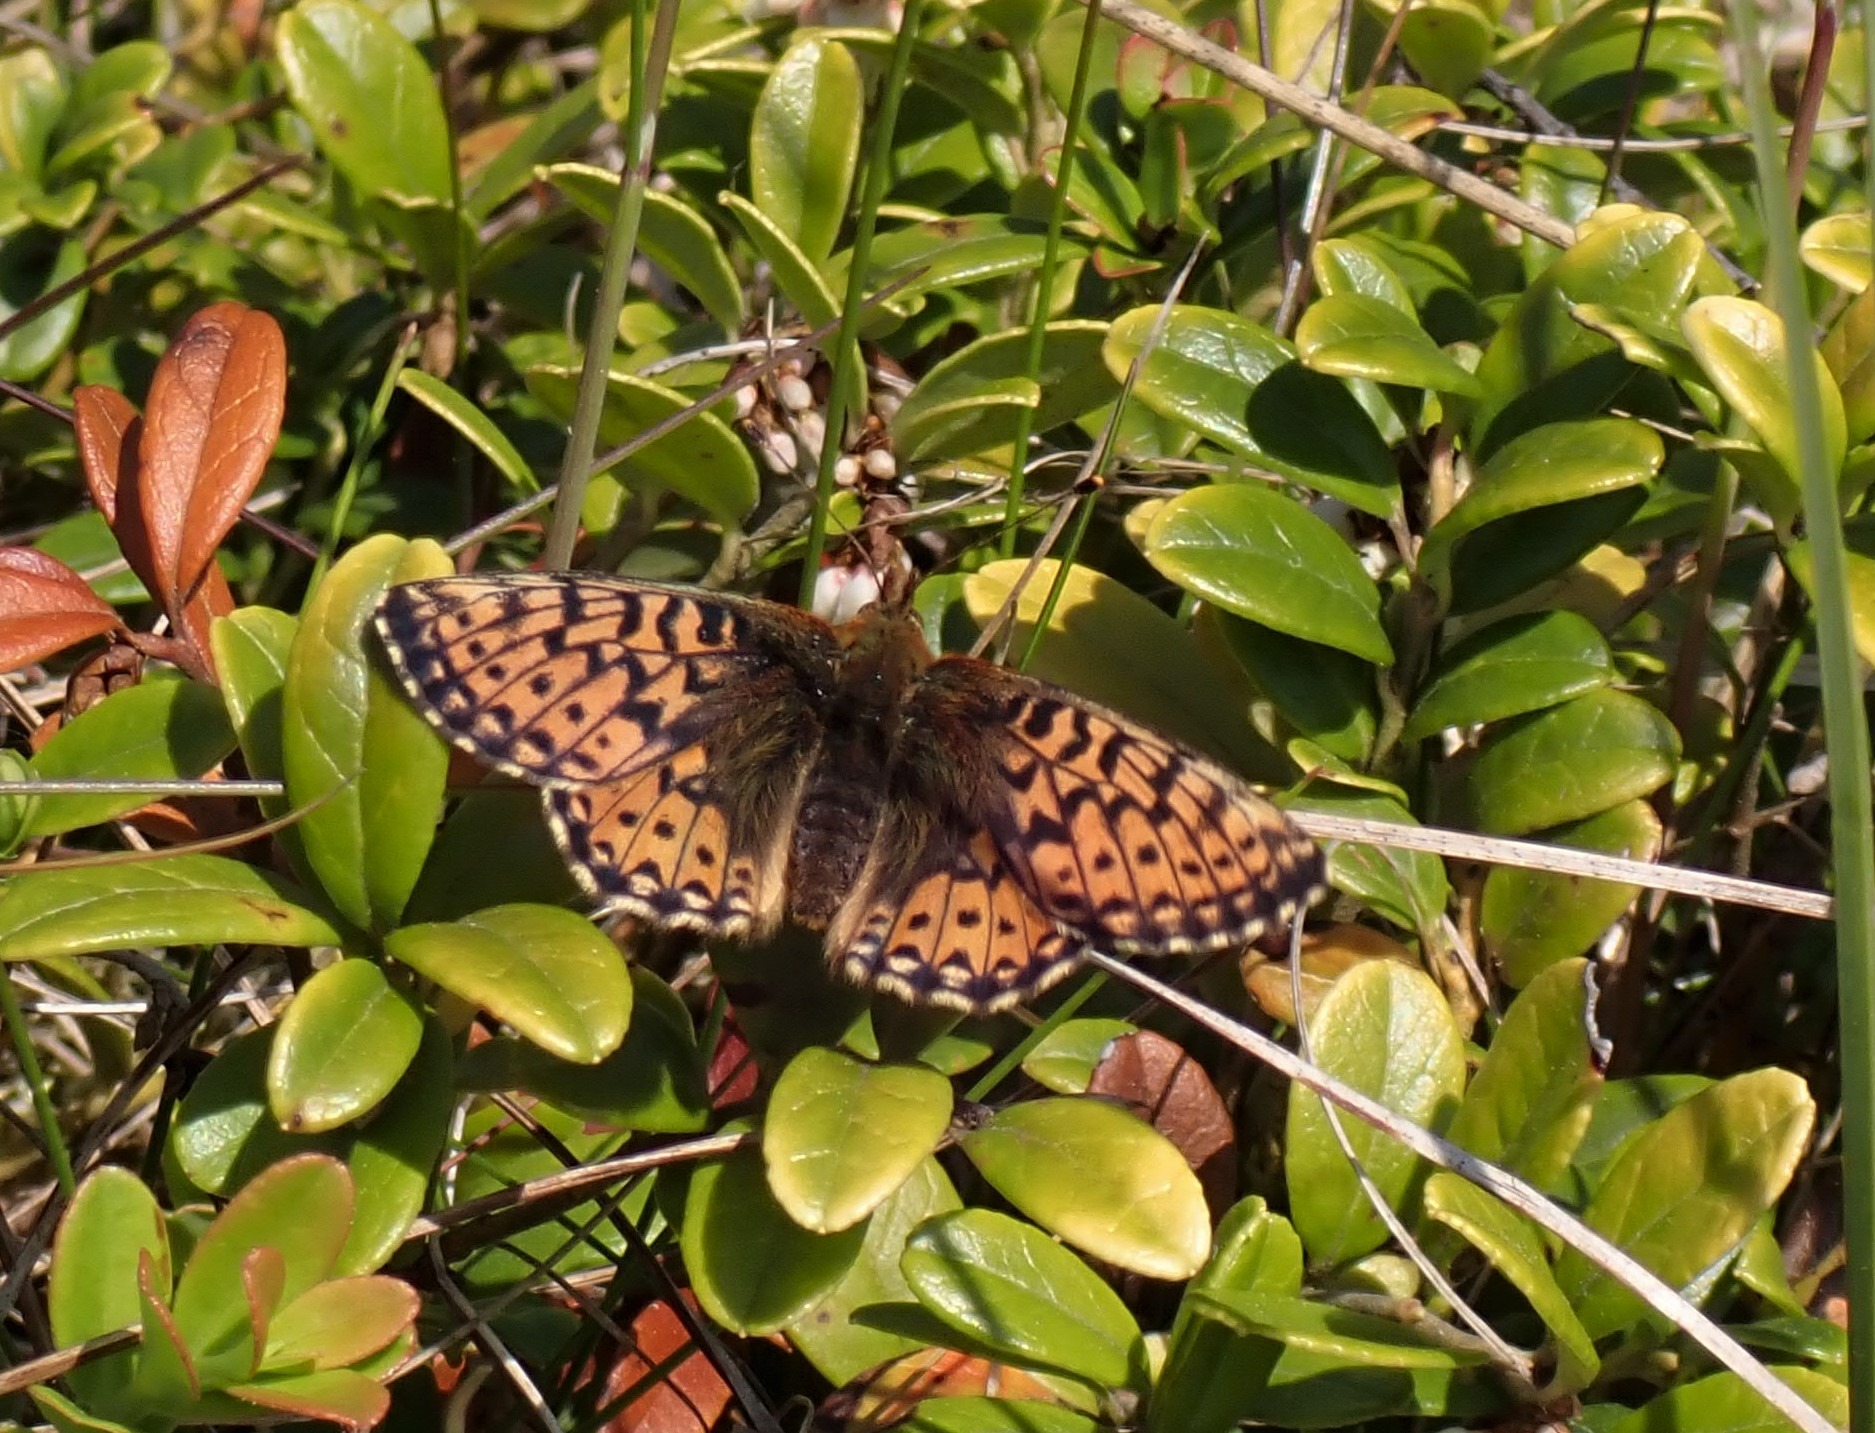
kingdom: Animalia
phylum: Arthropoda
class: Insecta
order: Lepidoptera
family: Nymphalidae
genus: Boloria
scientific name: Boloria aquilonaris
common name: Moseperlemorsommerfugl
